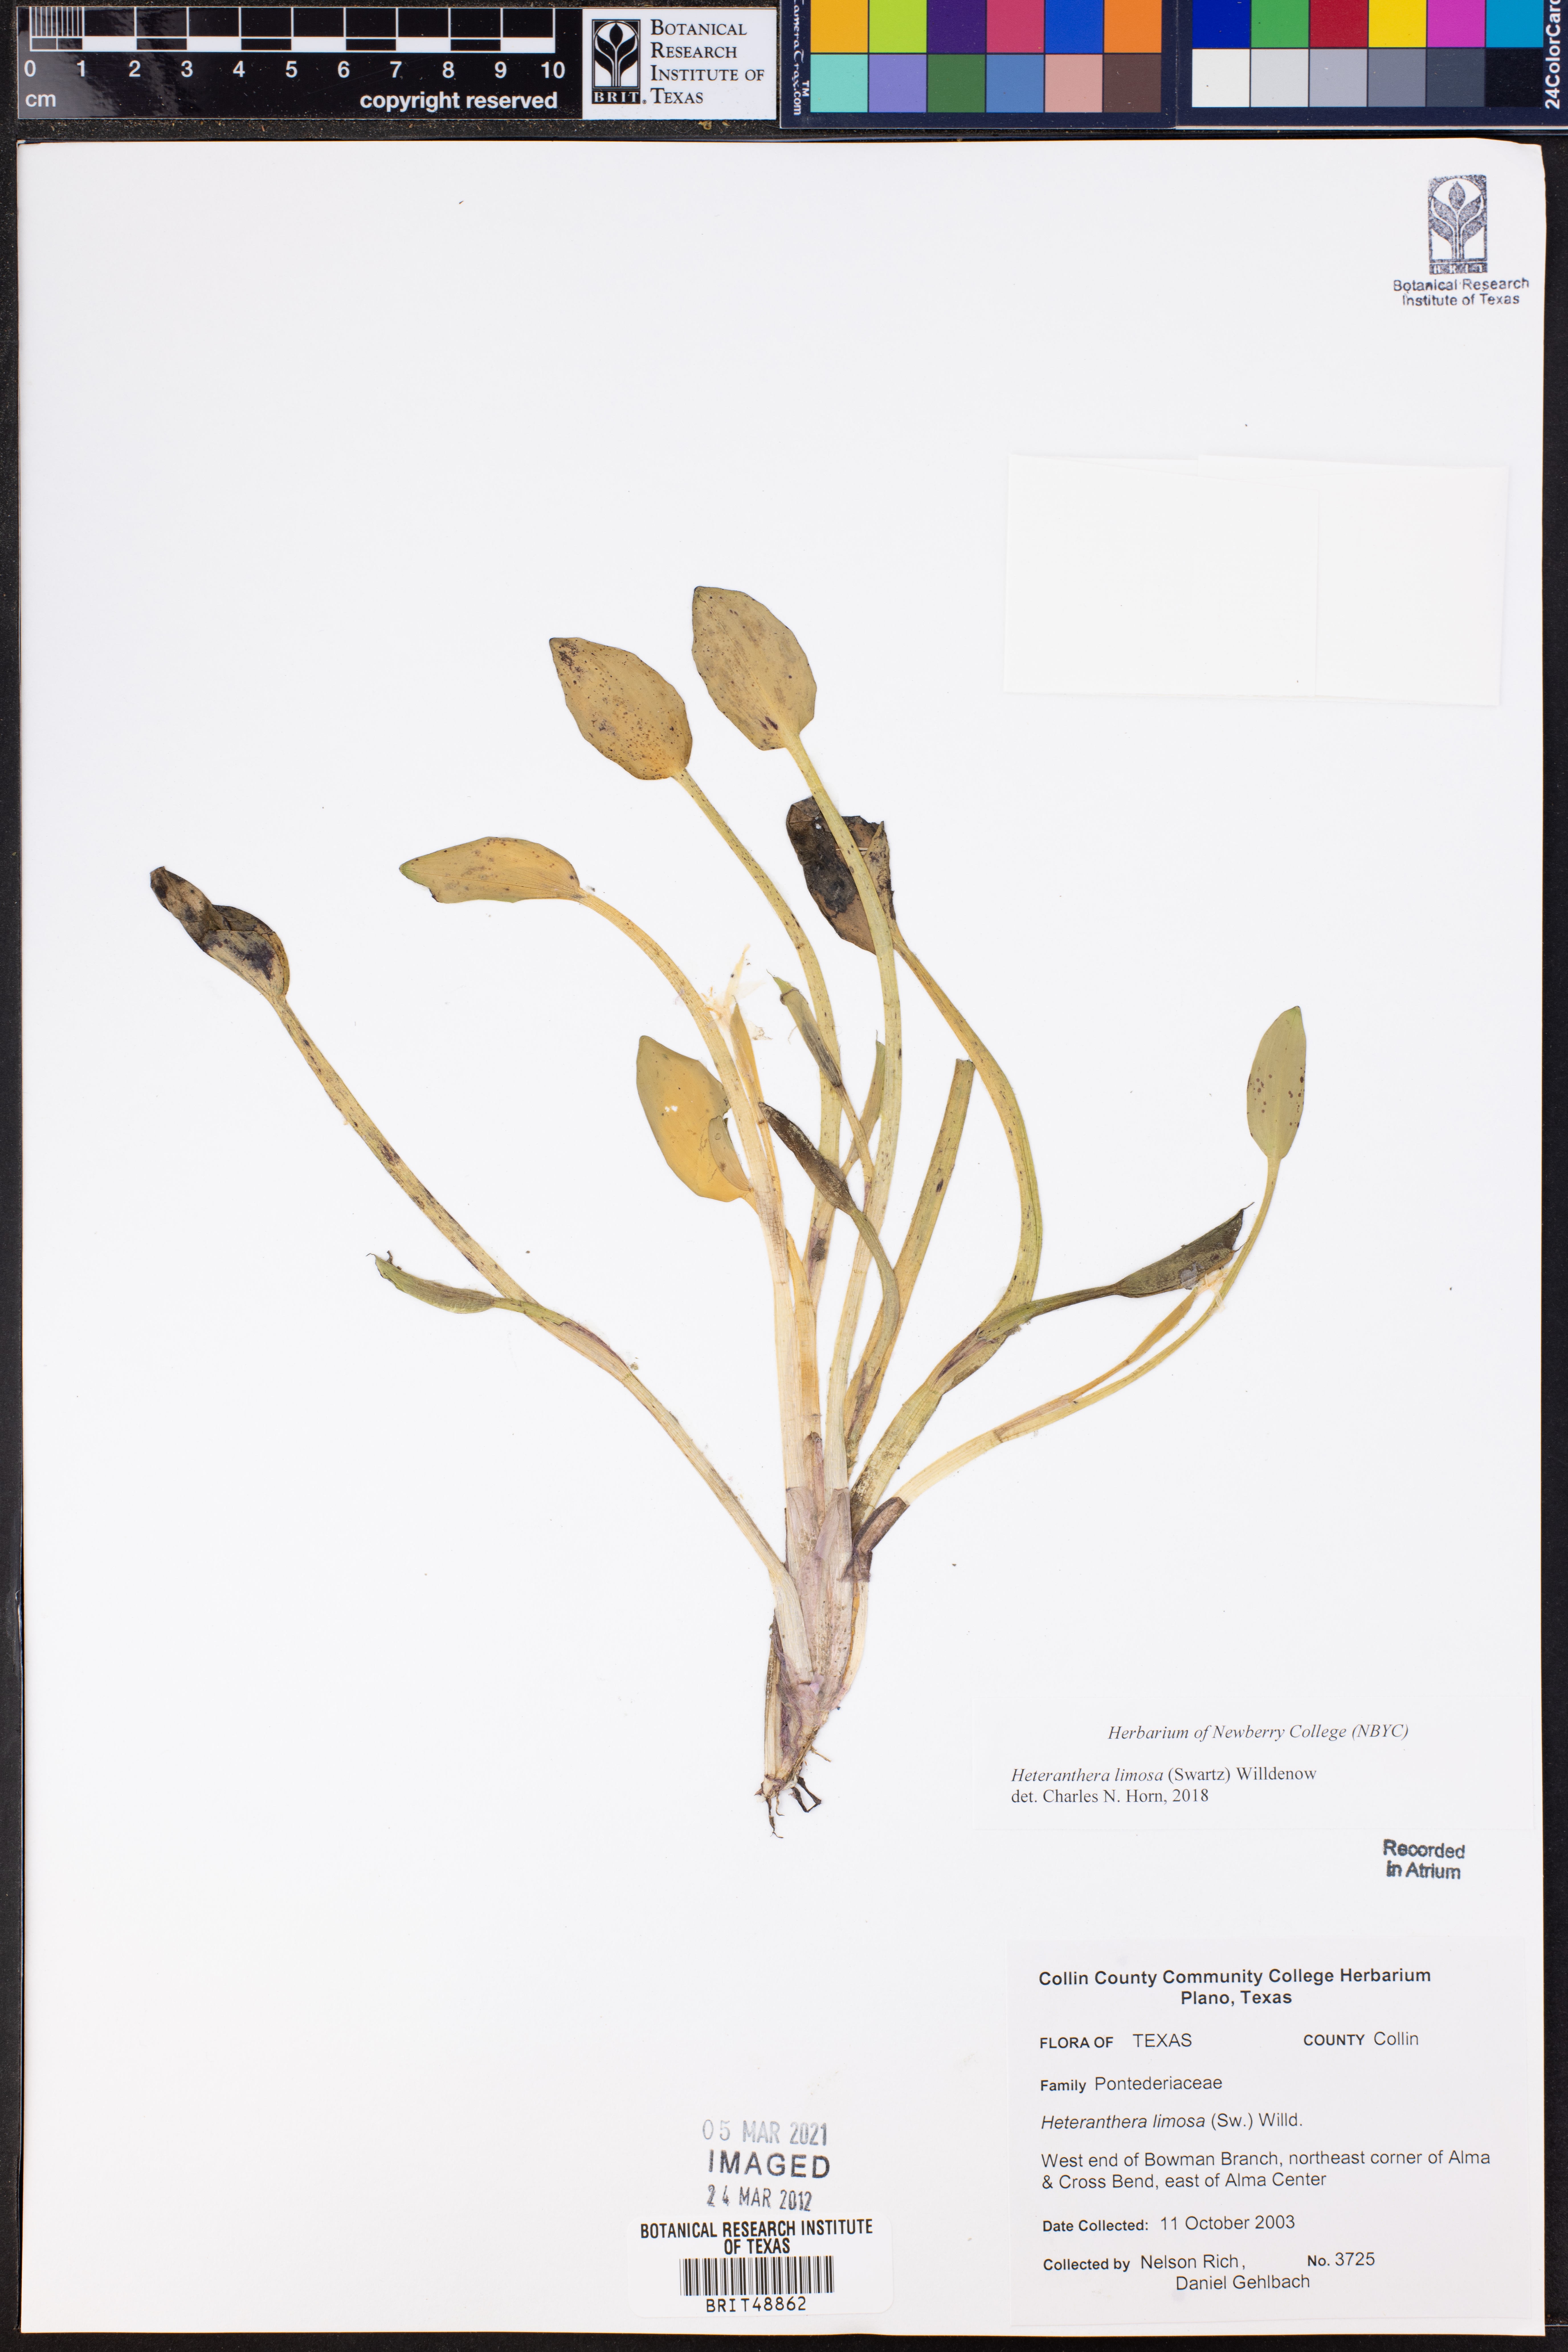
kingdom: Plantae
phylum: Tracheophyta
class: Liliopsida
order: Commelinales
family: Pontederiaceae
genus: Heteranthera
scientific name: Heteranthera limosa
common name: Blue mud-plantain
